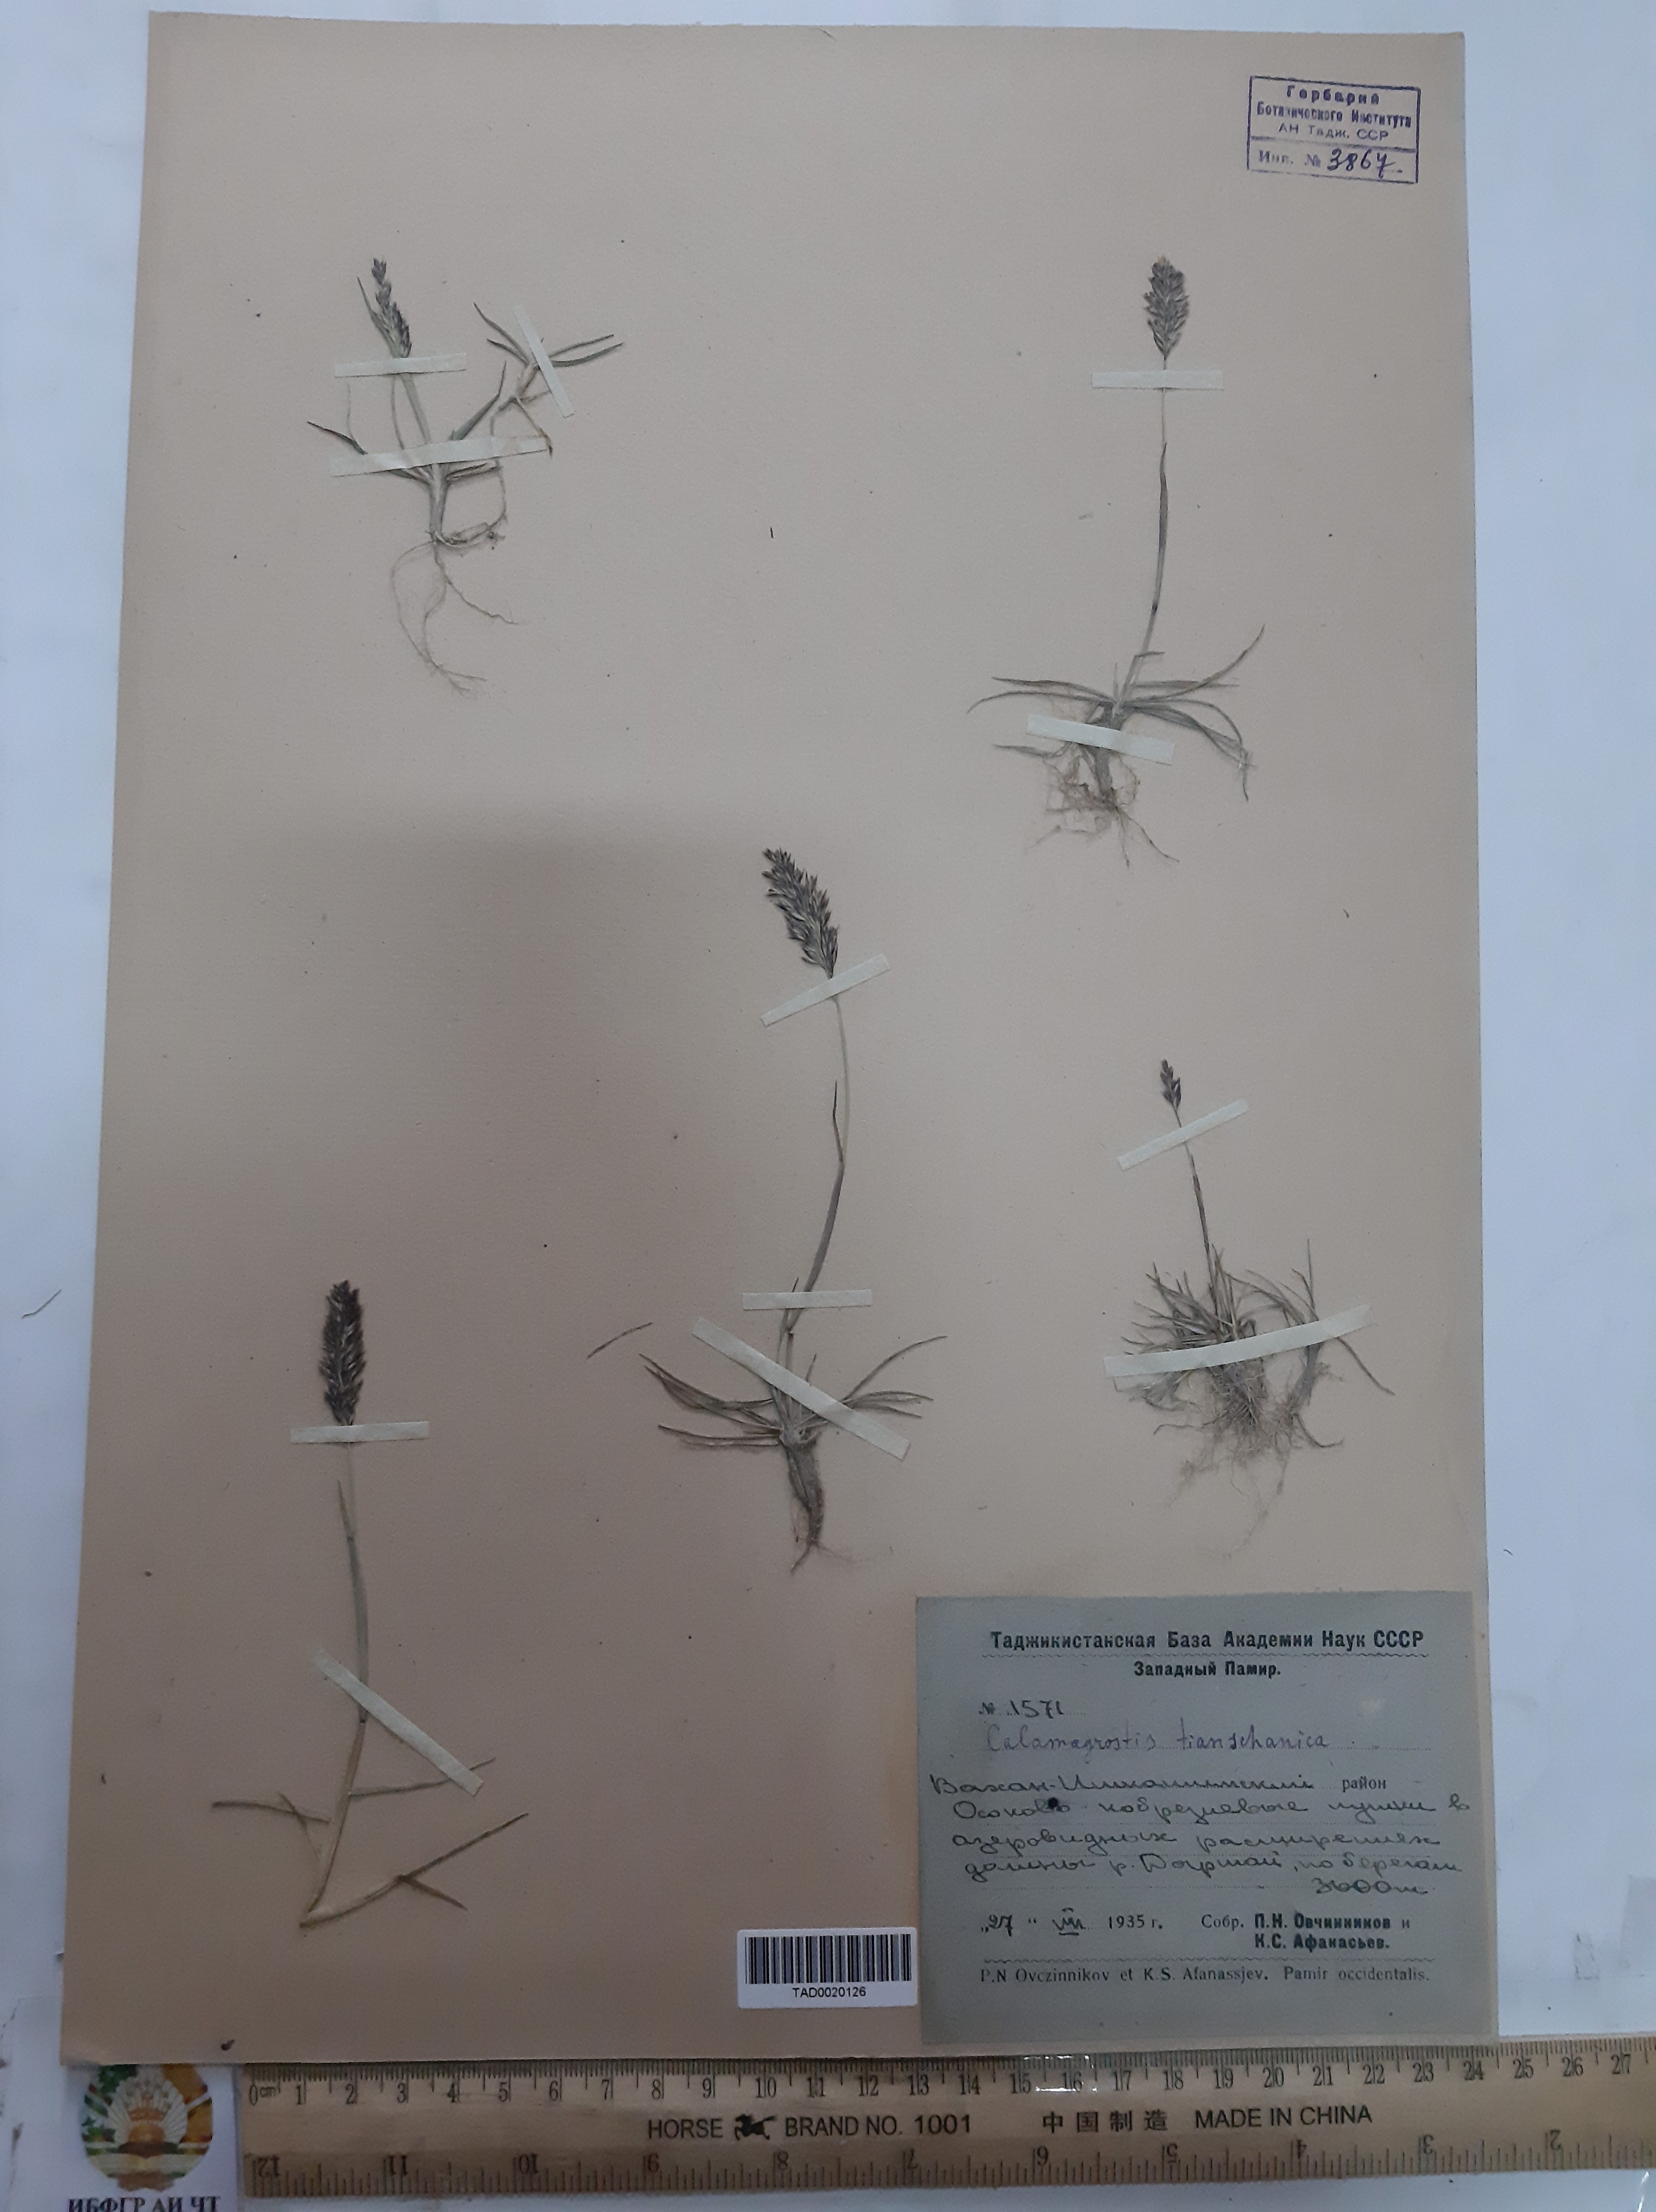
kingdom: Plantae
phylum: Tracheophyta
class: Liliopsida
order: Poales
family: Poaceae
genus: Calamagrostis
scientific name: Calamagrostis tianschanica
